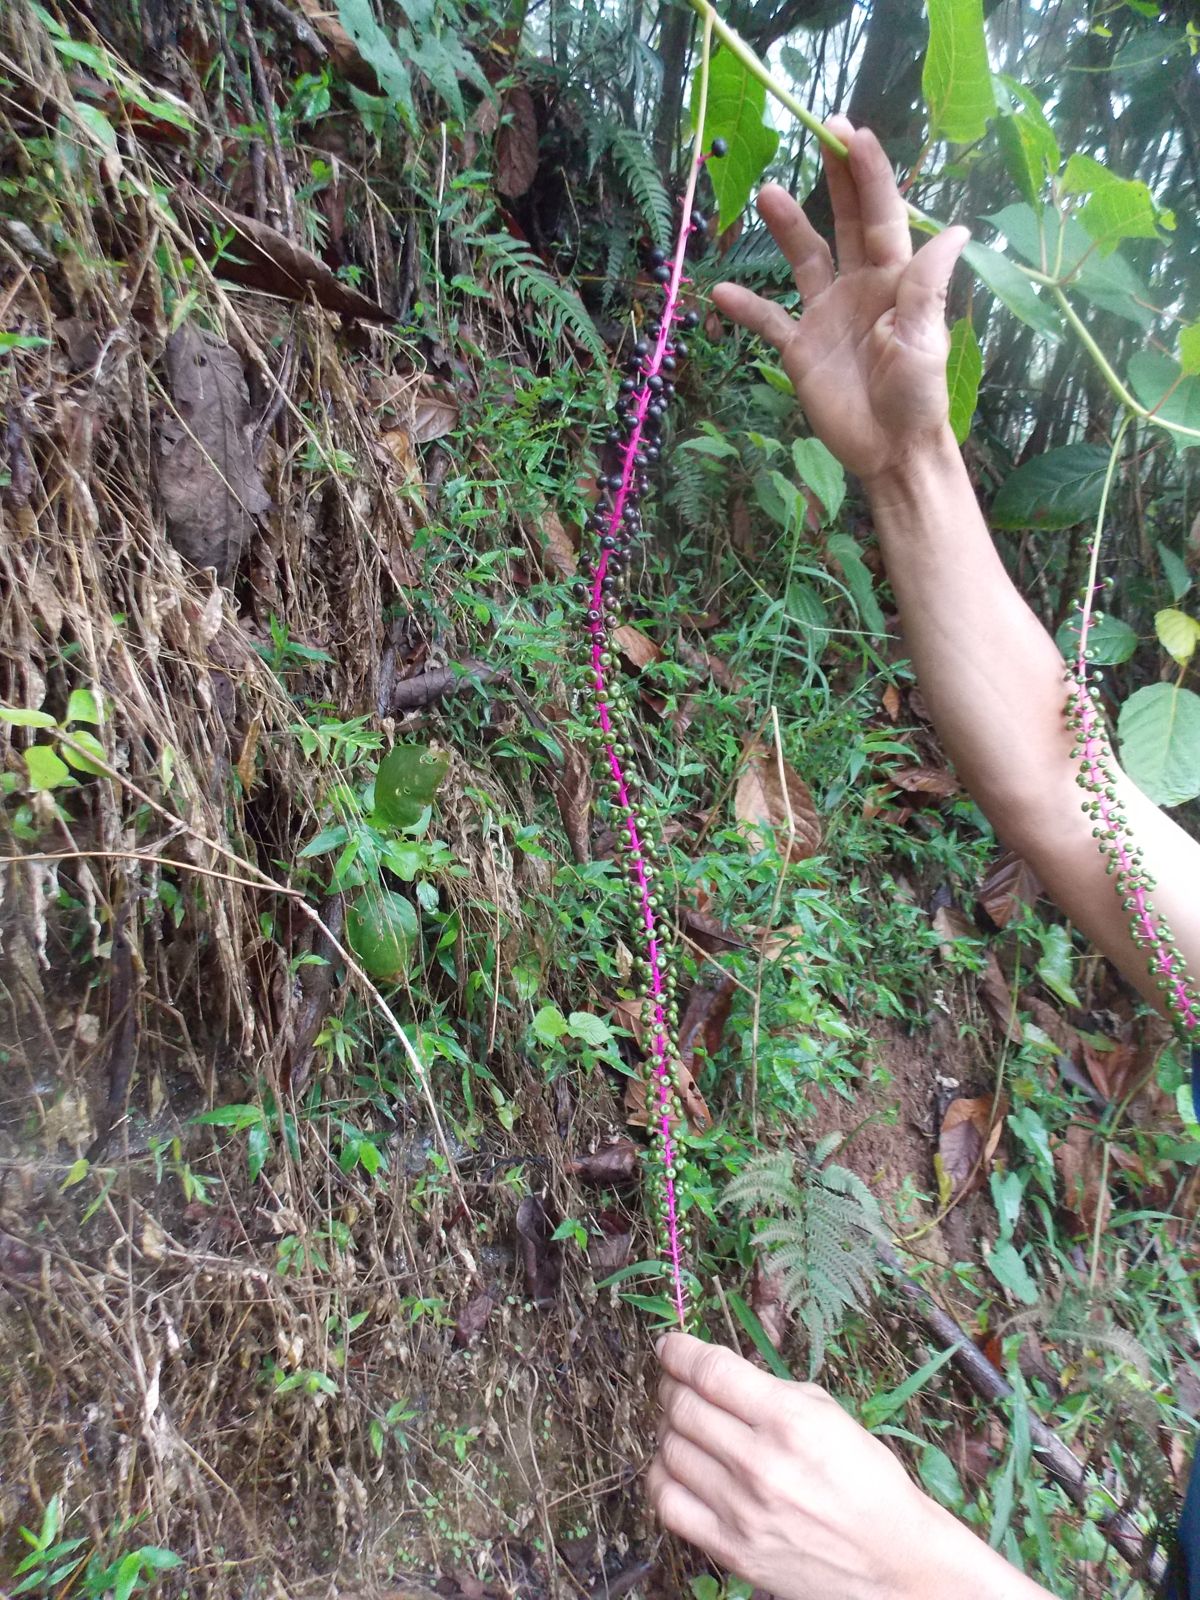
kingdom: Plantae
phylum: Tracheophyta
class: Magnoliopsida
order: Caryophyllales
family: Phytolaccaceae
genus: Phytolacca
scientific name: Phytolacca icosandra
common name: Button pokeweed
